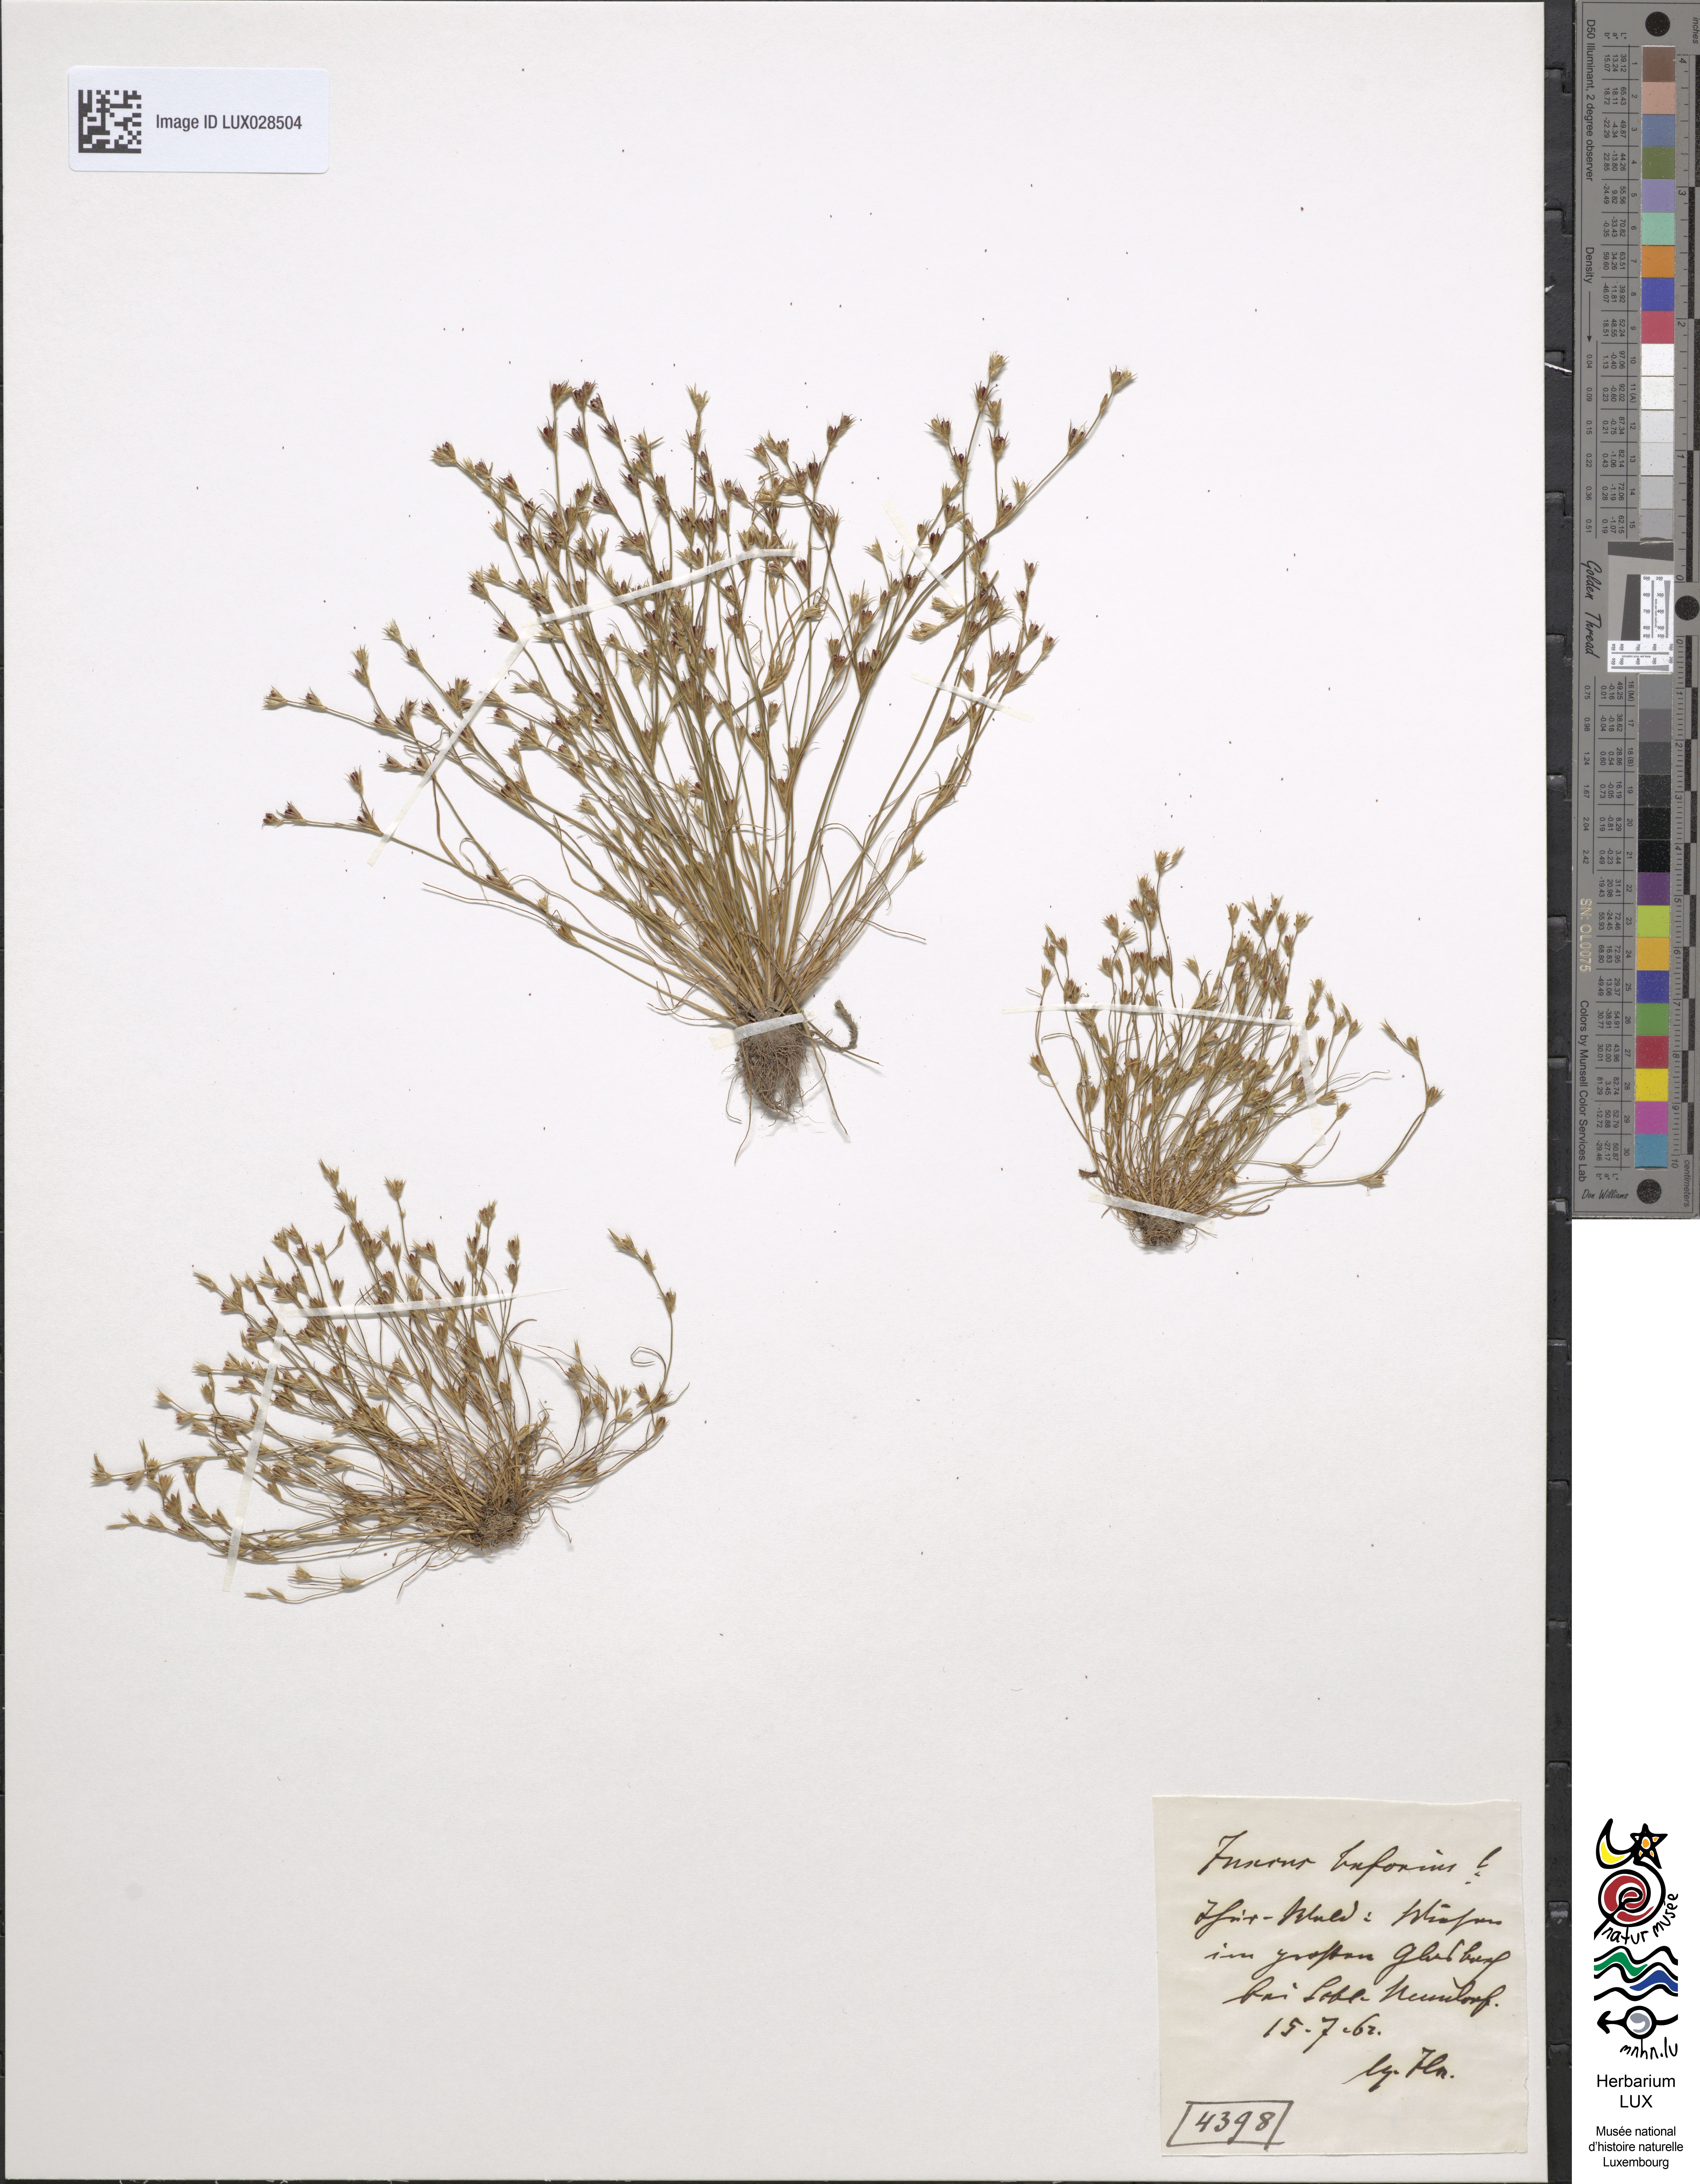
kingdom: Plantae
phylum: Tracheophyta
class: Liliopsida
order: Poales
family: Juncaceae
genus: Juncus
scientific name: Juncus bufonius
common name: Toad rush
